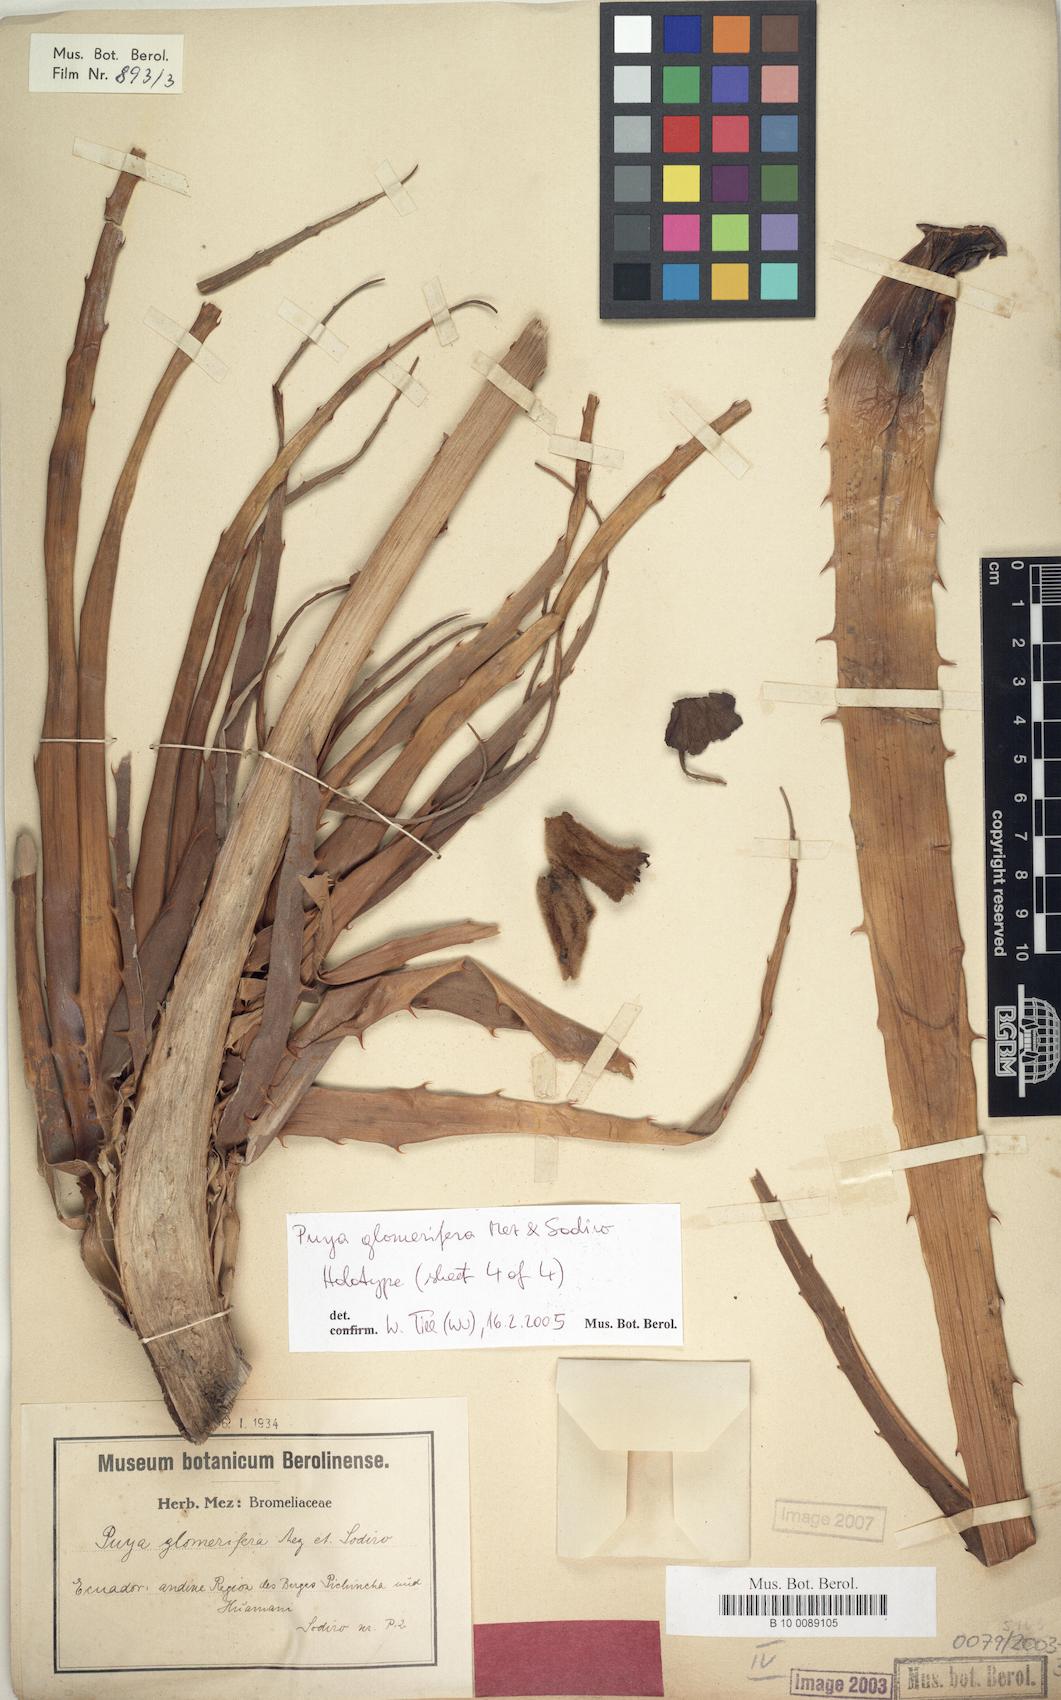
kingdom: Plantae
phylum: Tracheophyta
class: Liliopsida
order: Poales
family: Bromeliaceae
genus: Puya
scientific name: Puya glomerifera
